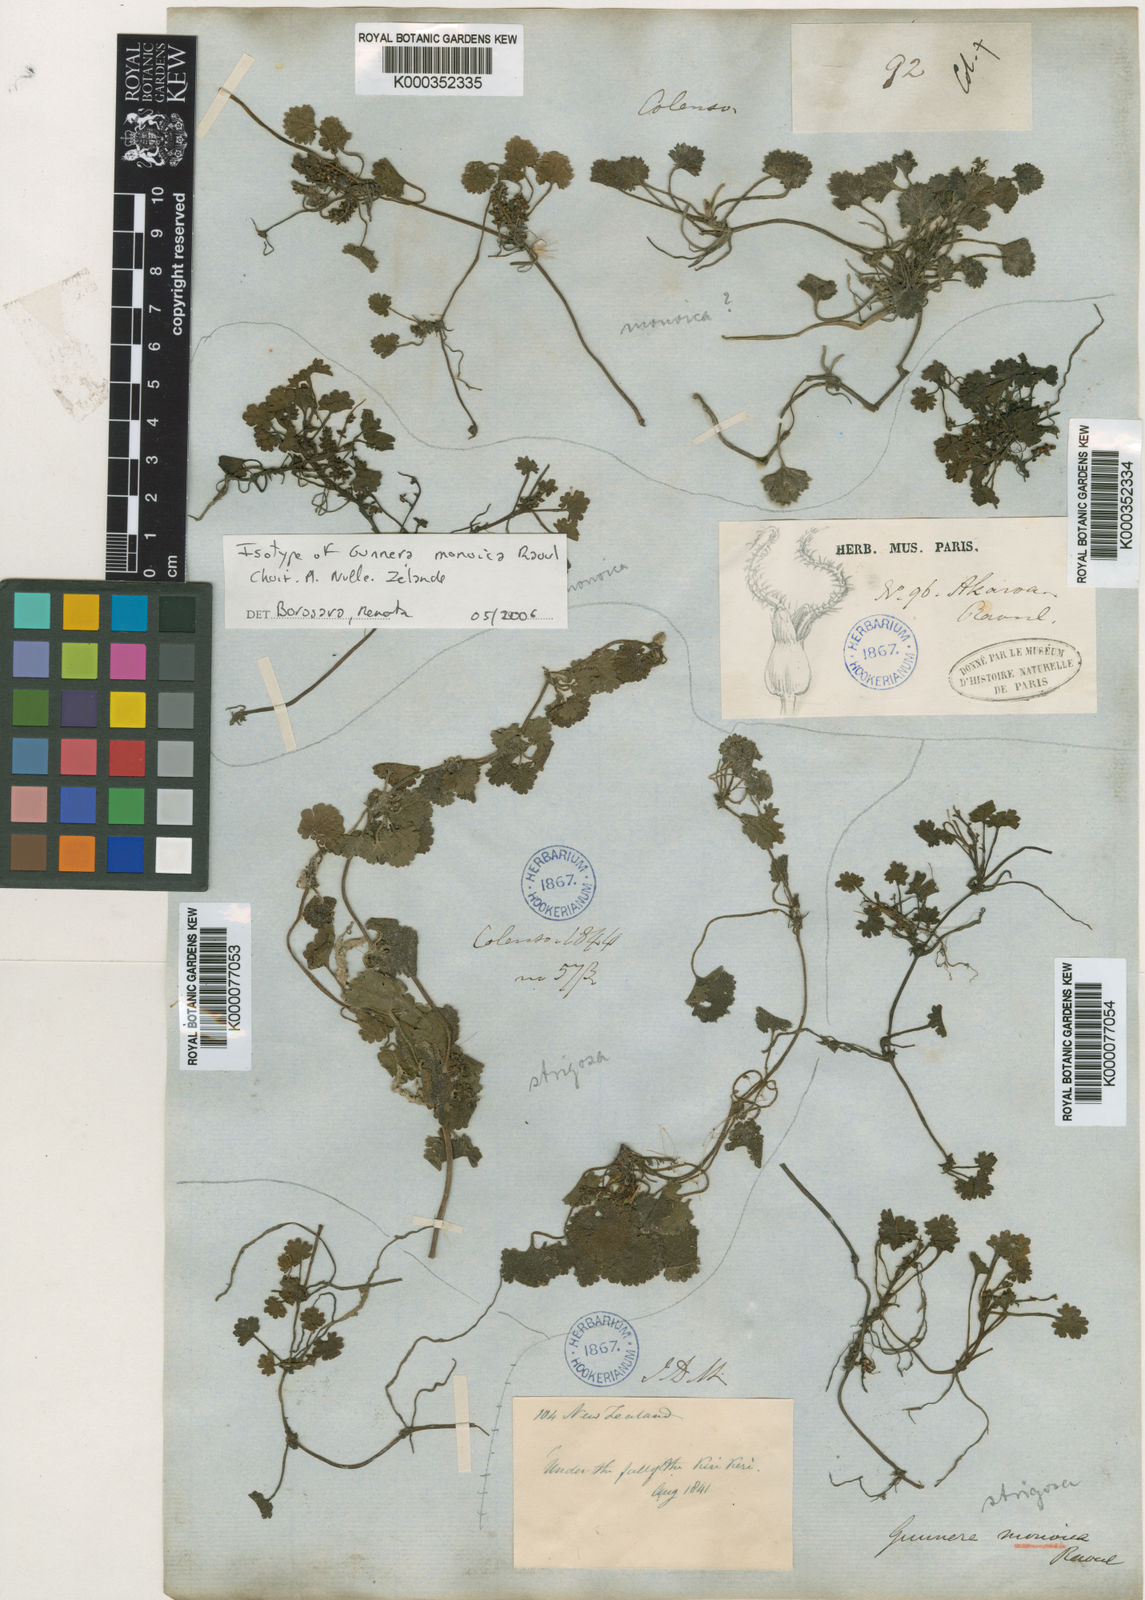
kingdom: Plantae
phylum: Tracheophyta
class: Magnoliopsida
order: Gunnerales
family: Gunneraceae
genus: Gunnera
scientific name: Gunnera monoica
